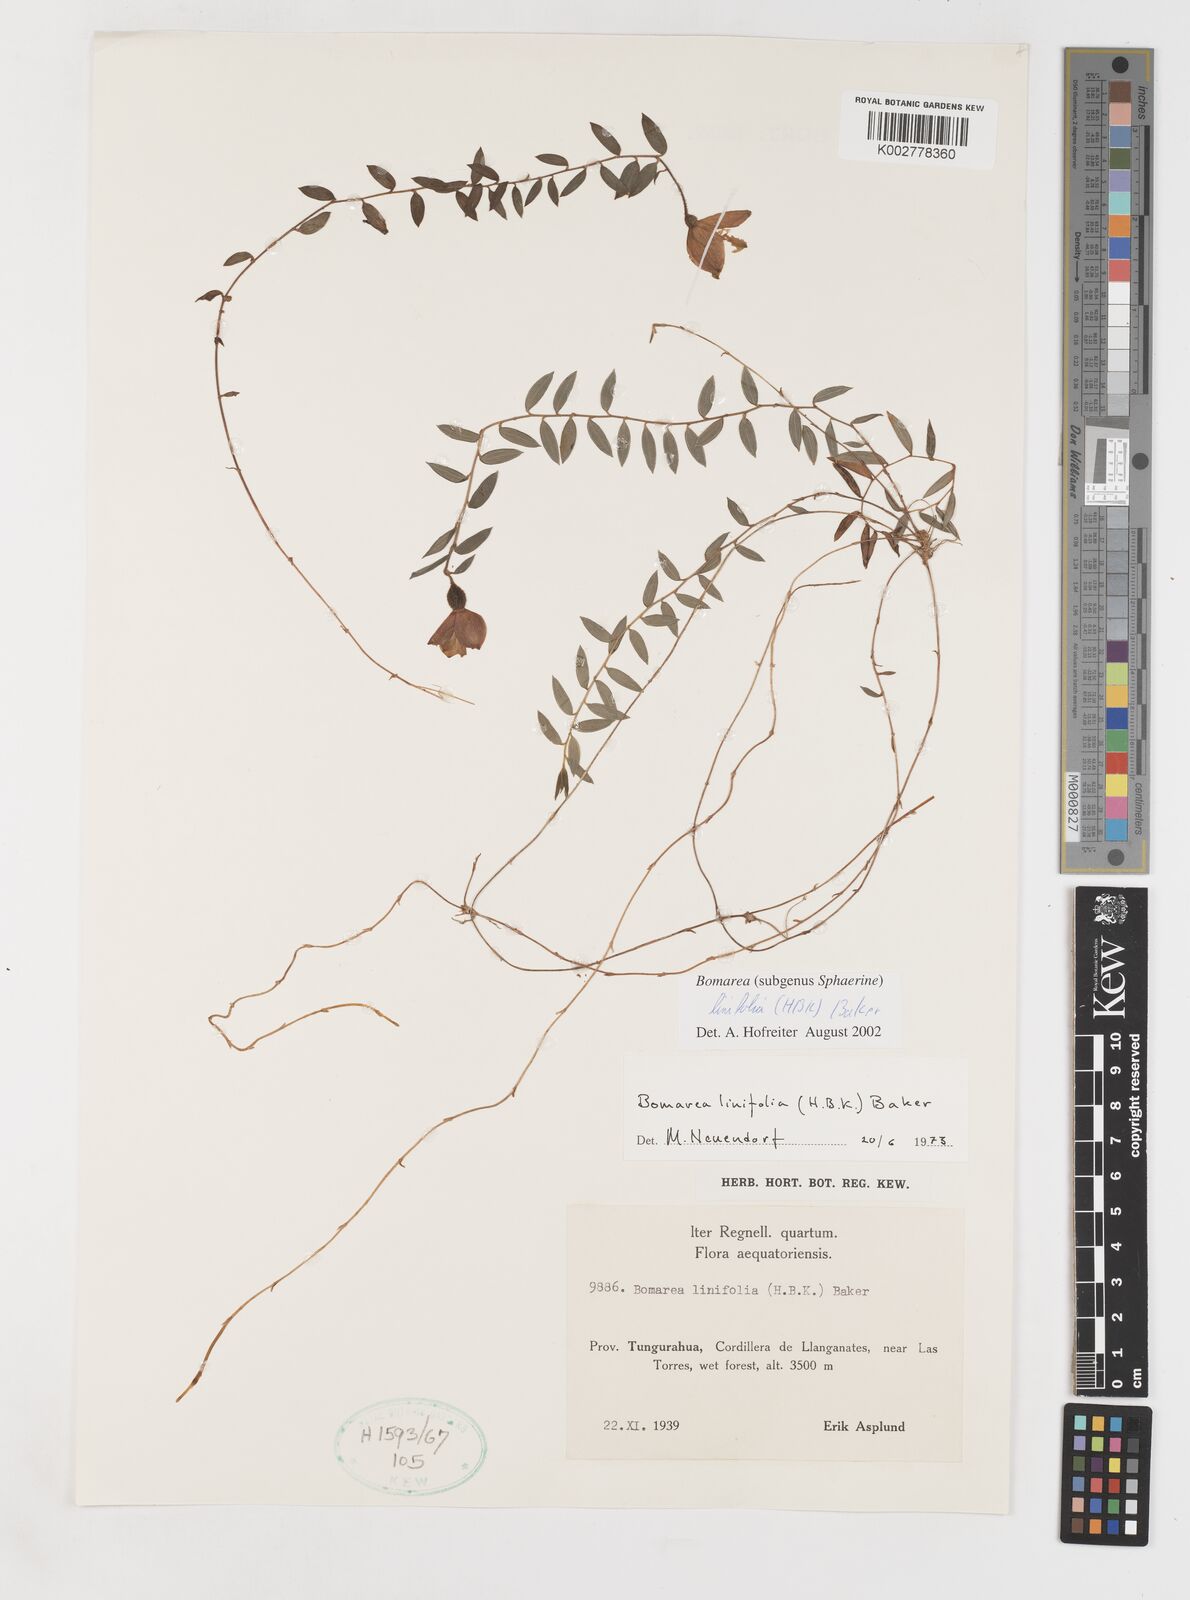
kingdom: Plantae
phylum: Tracheophyta
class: Liliopsida
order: Liliales
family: Alstroemeriaceae
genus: Bomarea
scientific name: Bomarea linifolia
